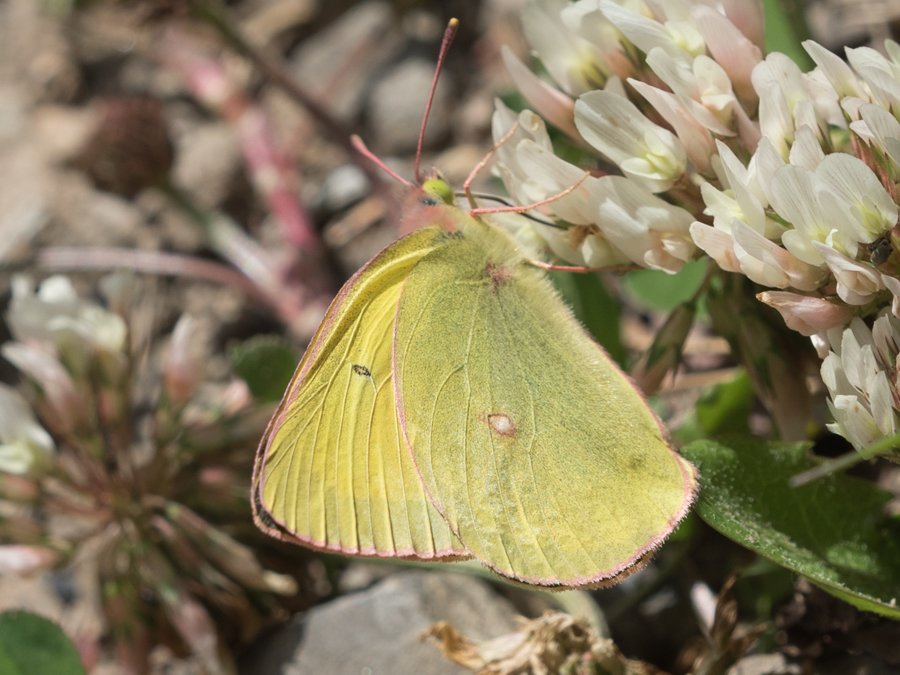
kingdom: Animalia
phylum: Arthropoda
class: Insecta
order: Lepidoptera
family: Pieridae
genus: Colias
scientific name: Colias interior
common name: Pink-edged Sulphur
